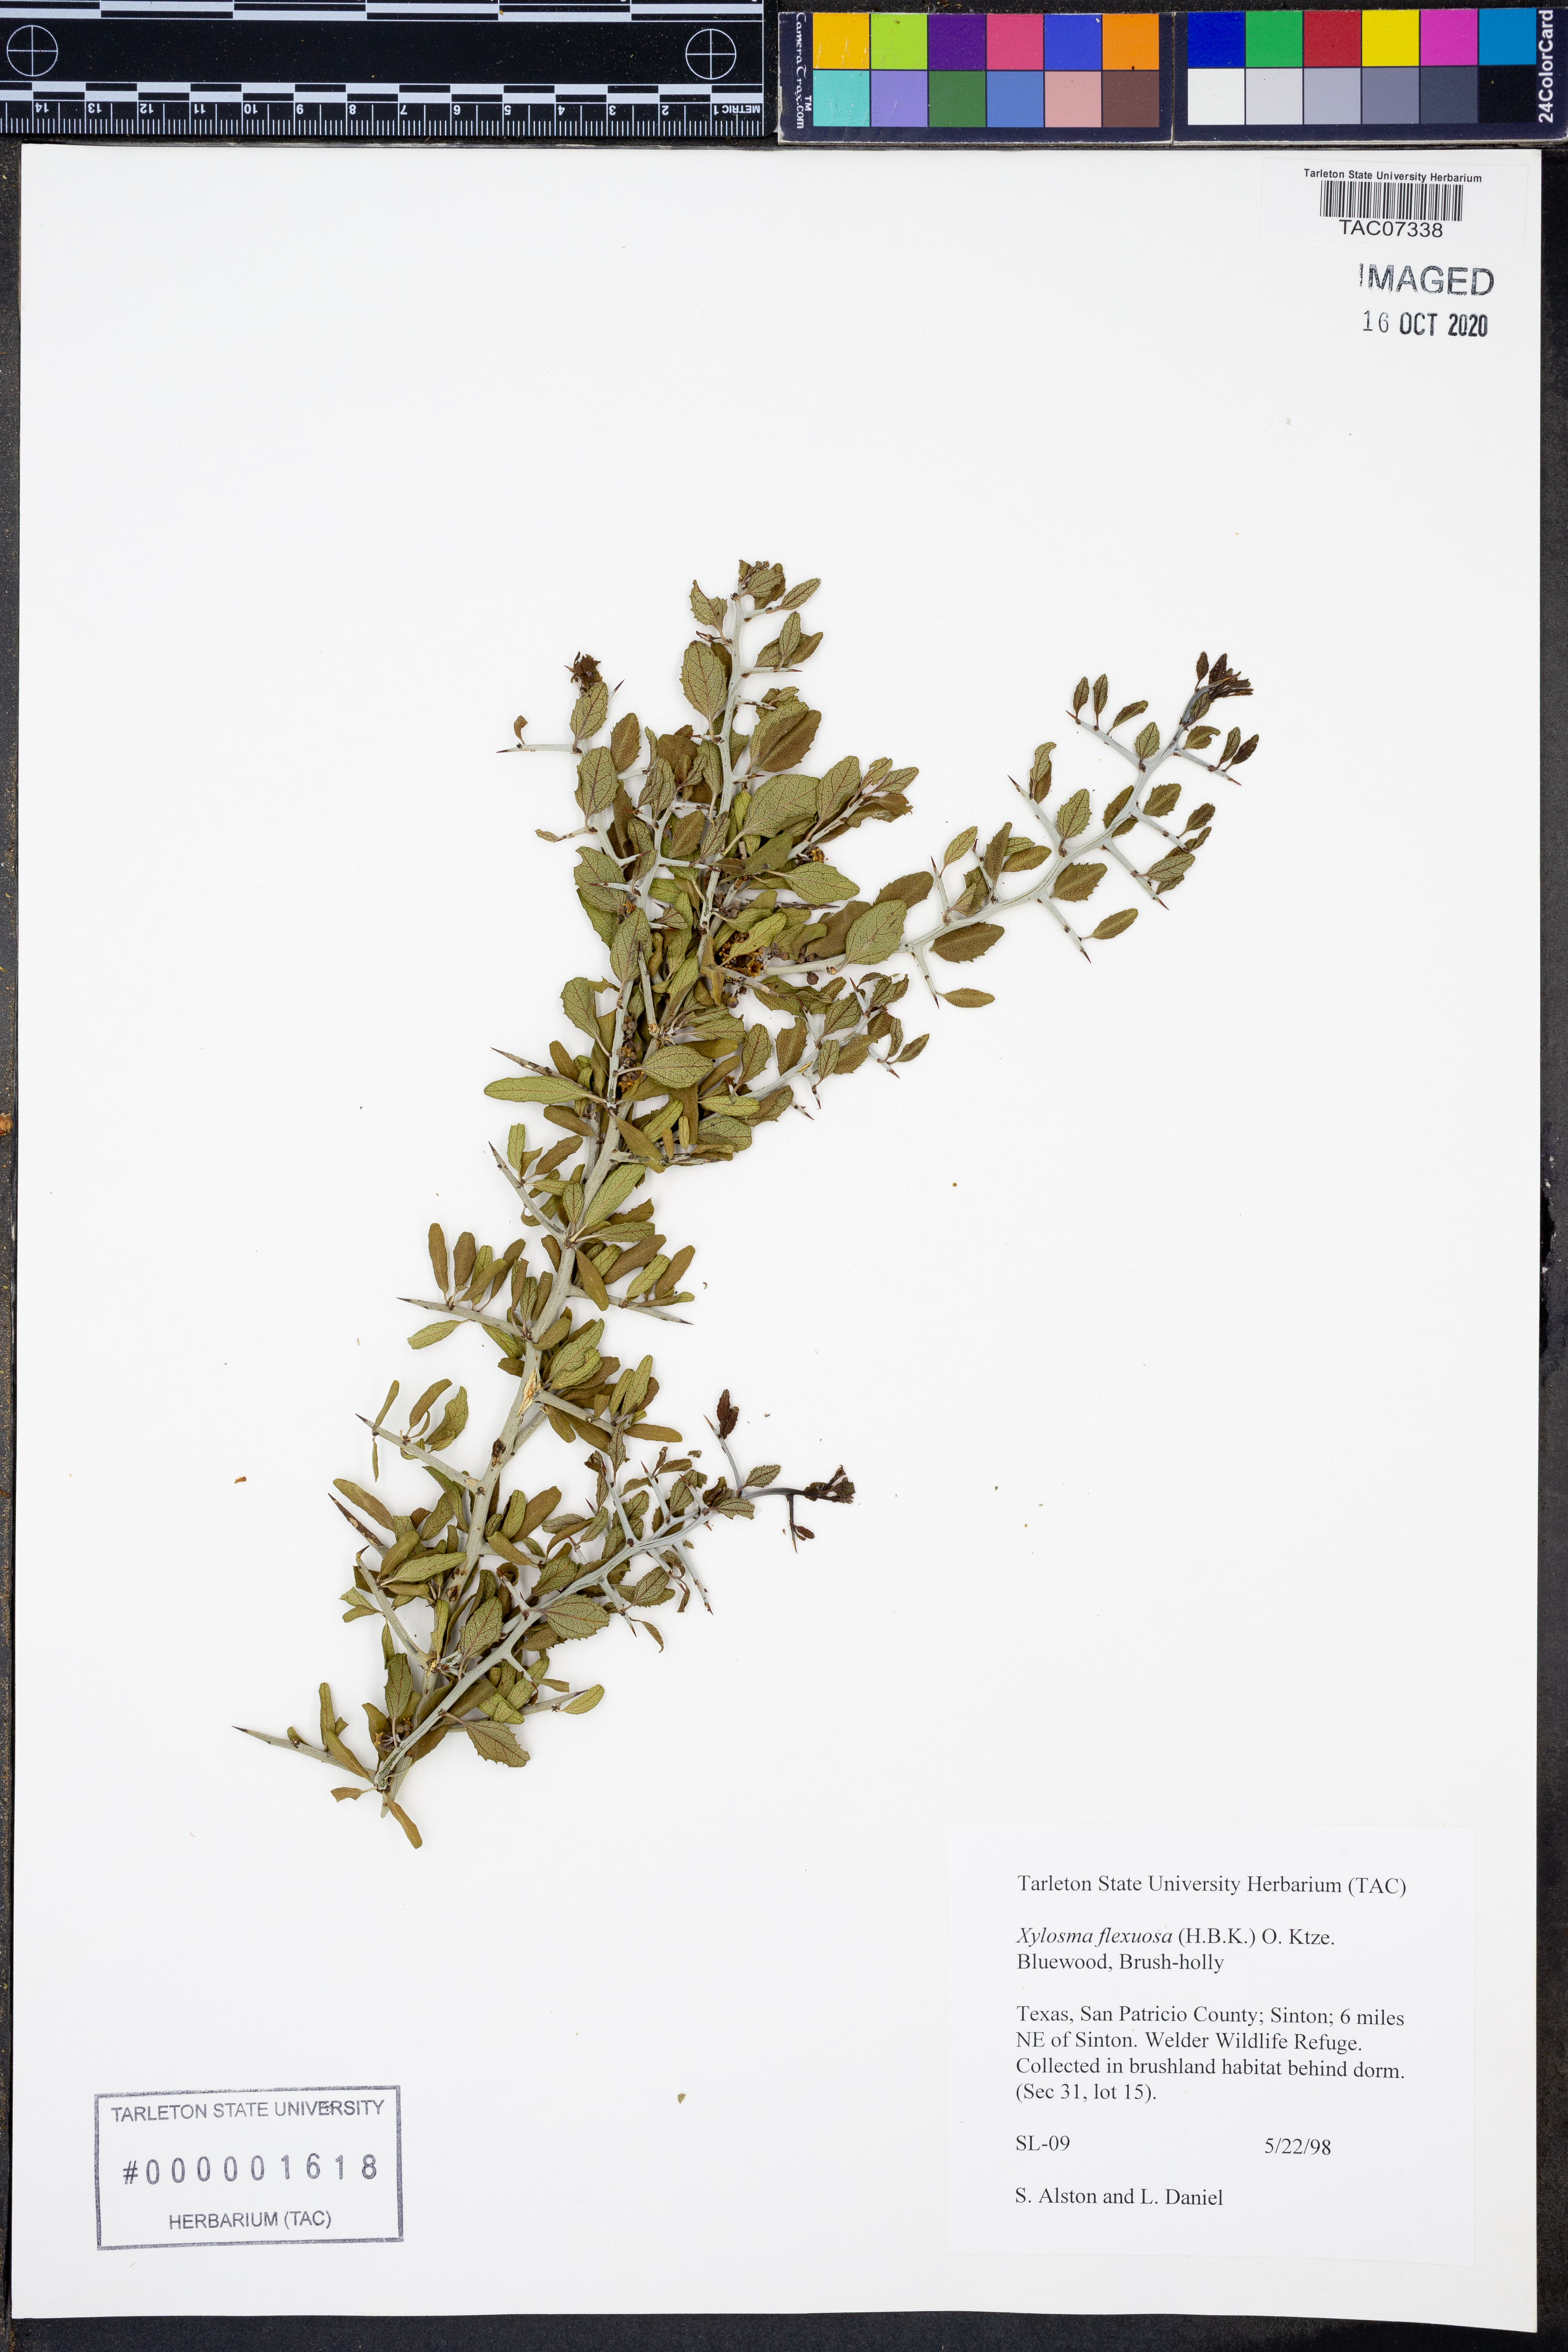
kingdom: Plantae
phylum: Tracheophyta
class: Magnoliopsida
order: Malpighiales
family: Salicaceae
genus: Xylosma
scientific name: Xylosma flexuosa
